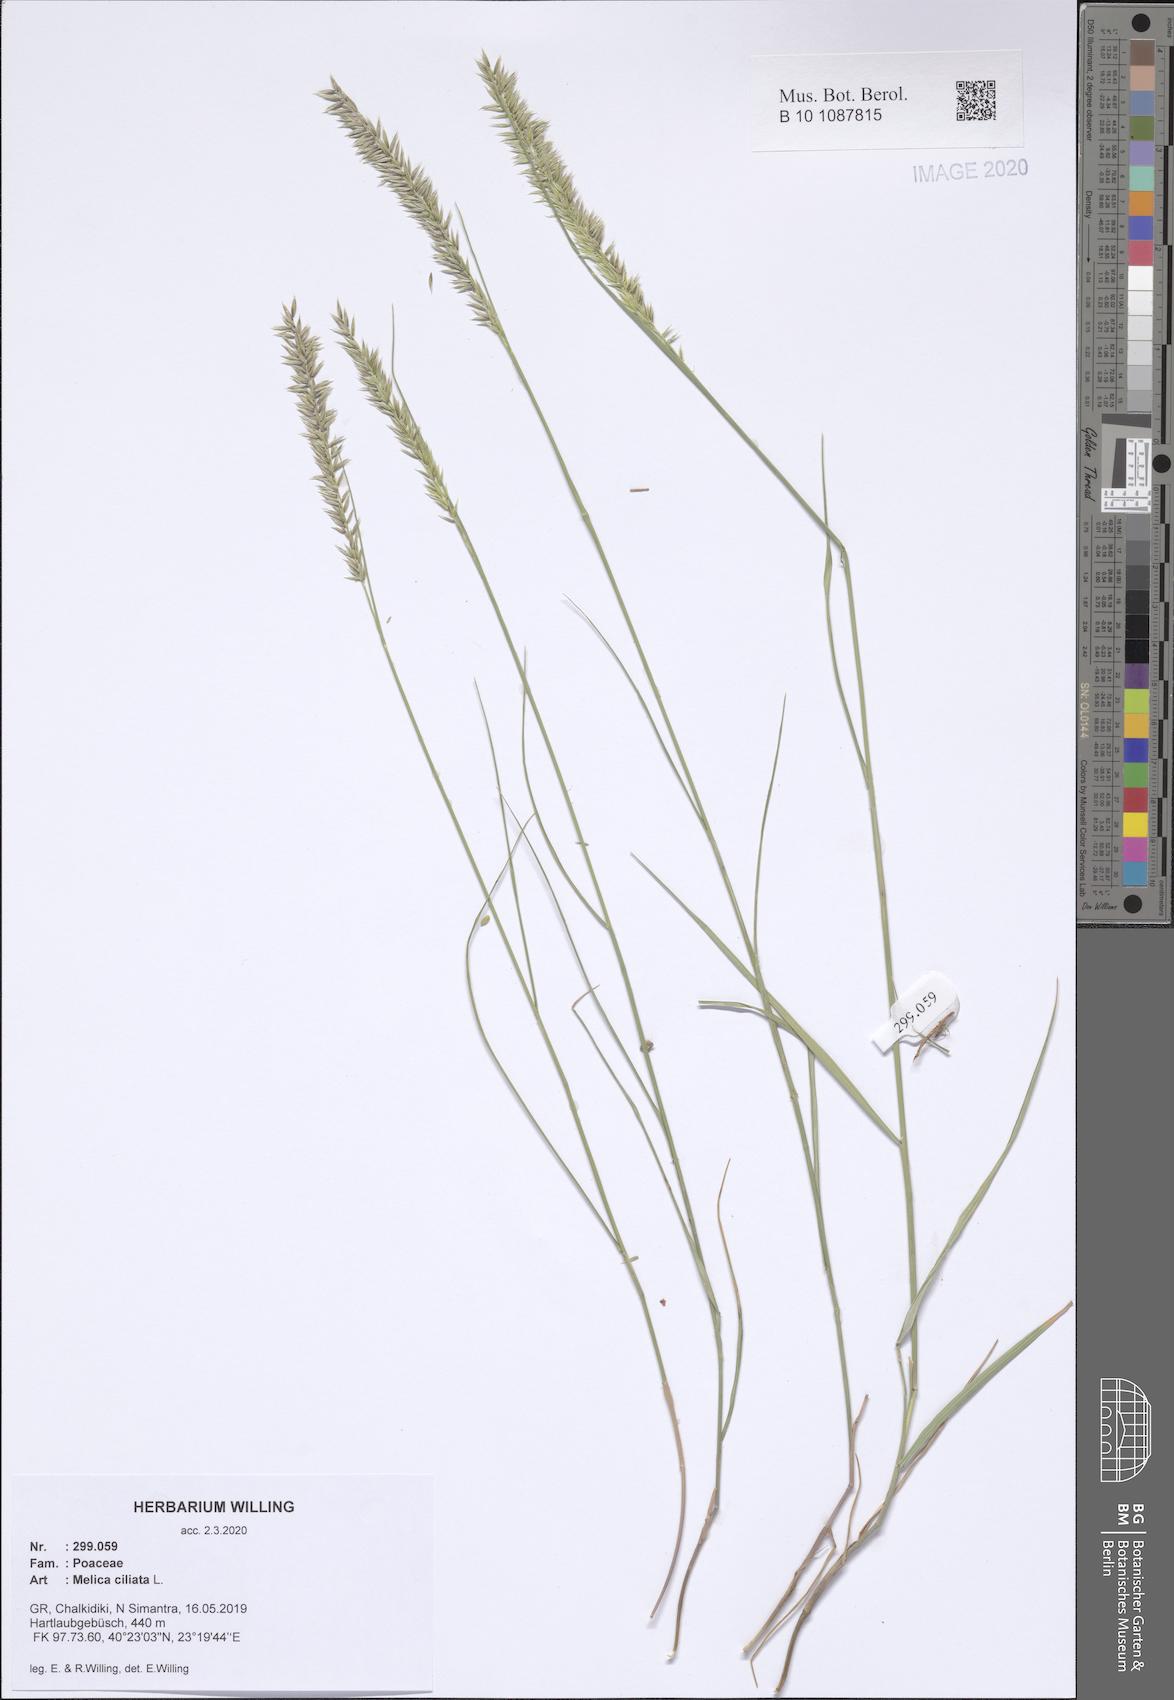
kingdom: Plantae
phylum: Tracheophyta
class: Liliopsida
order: Poales
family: Poaceae
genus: Melica
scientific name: Melica ciliata
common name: Hairy melicgrass
